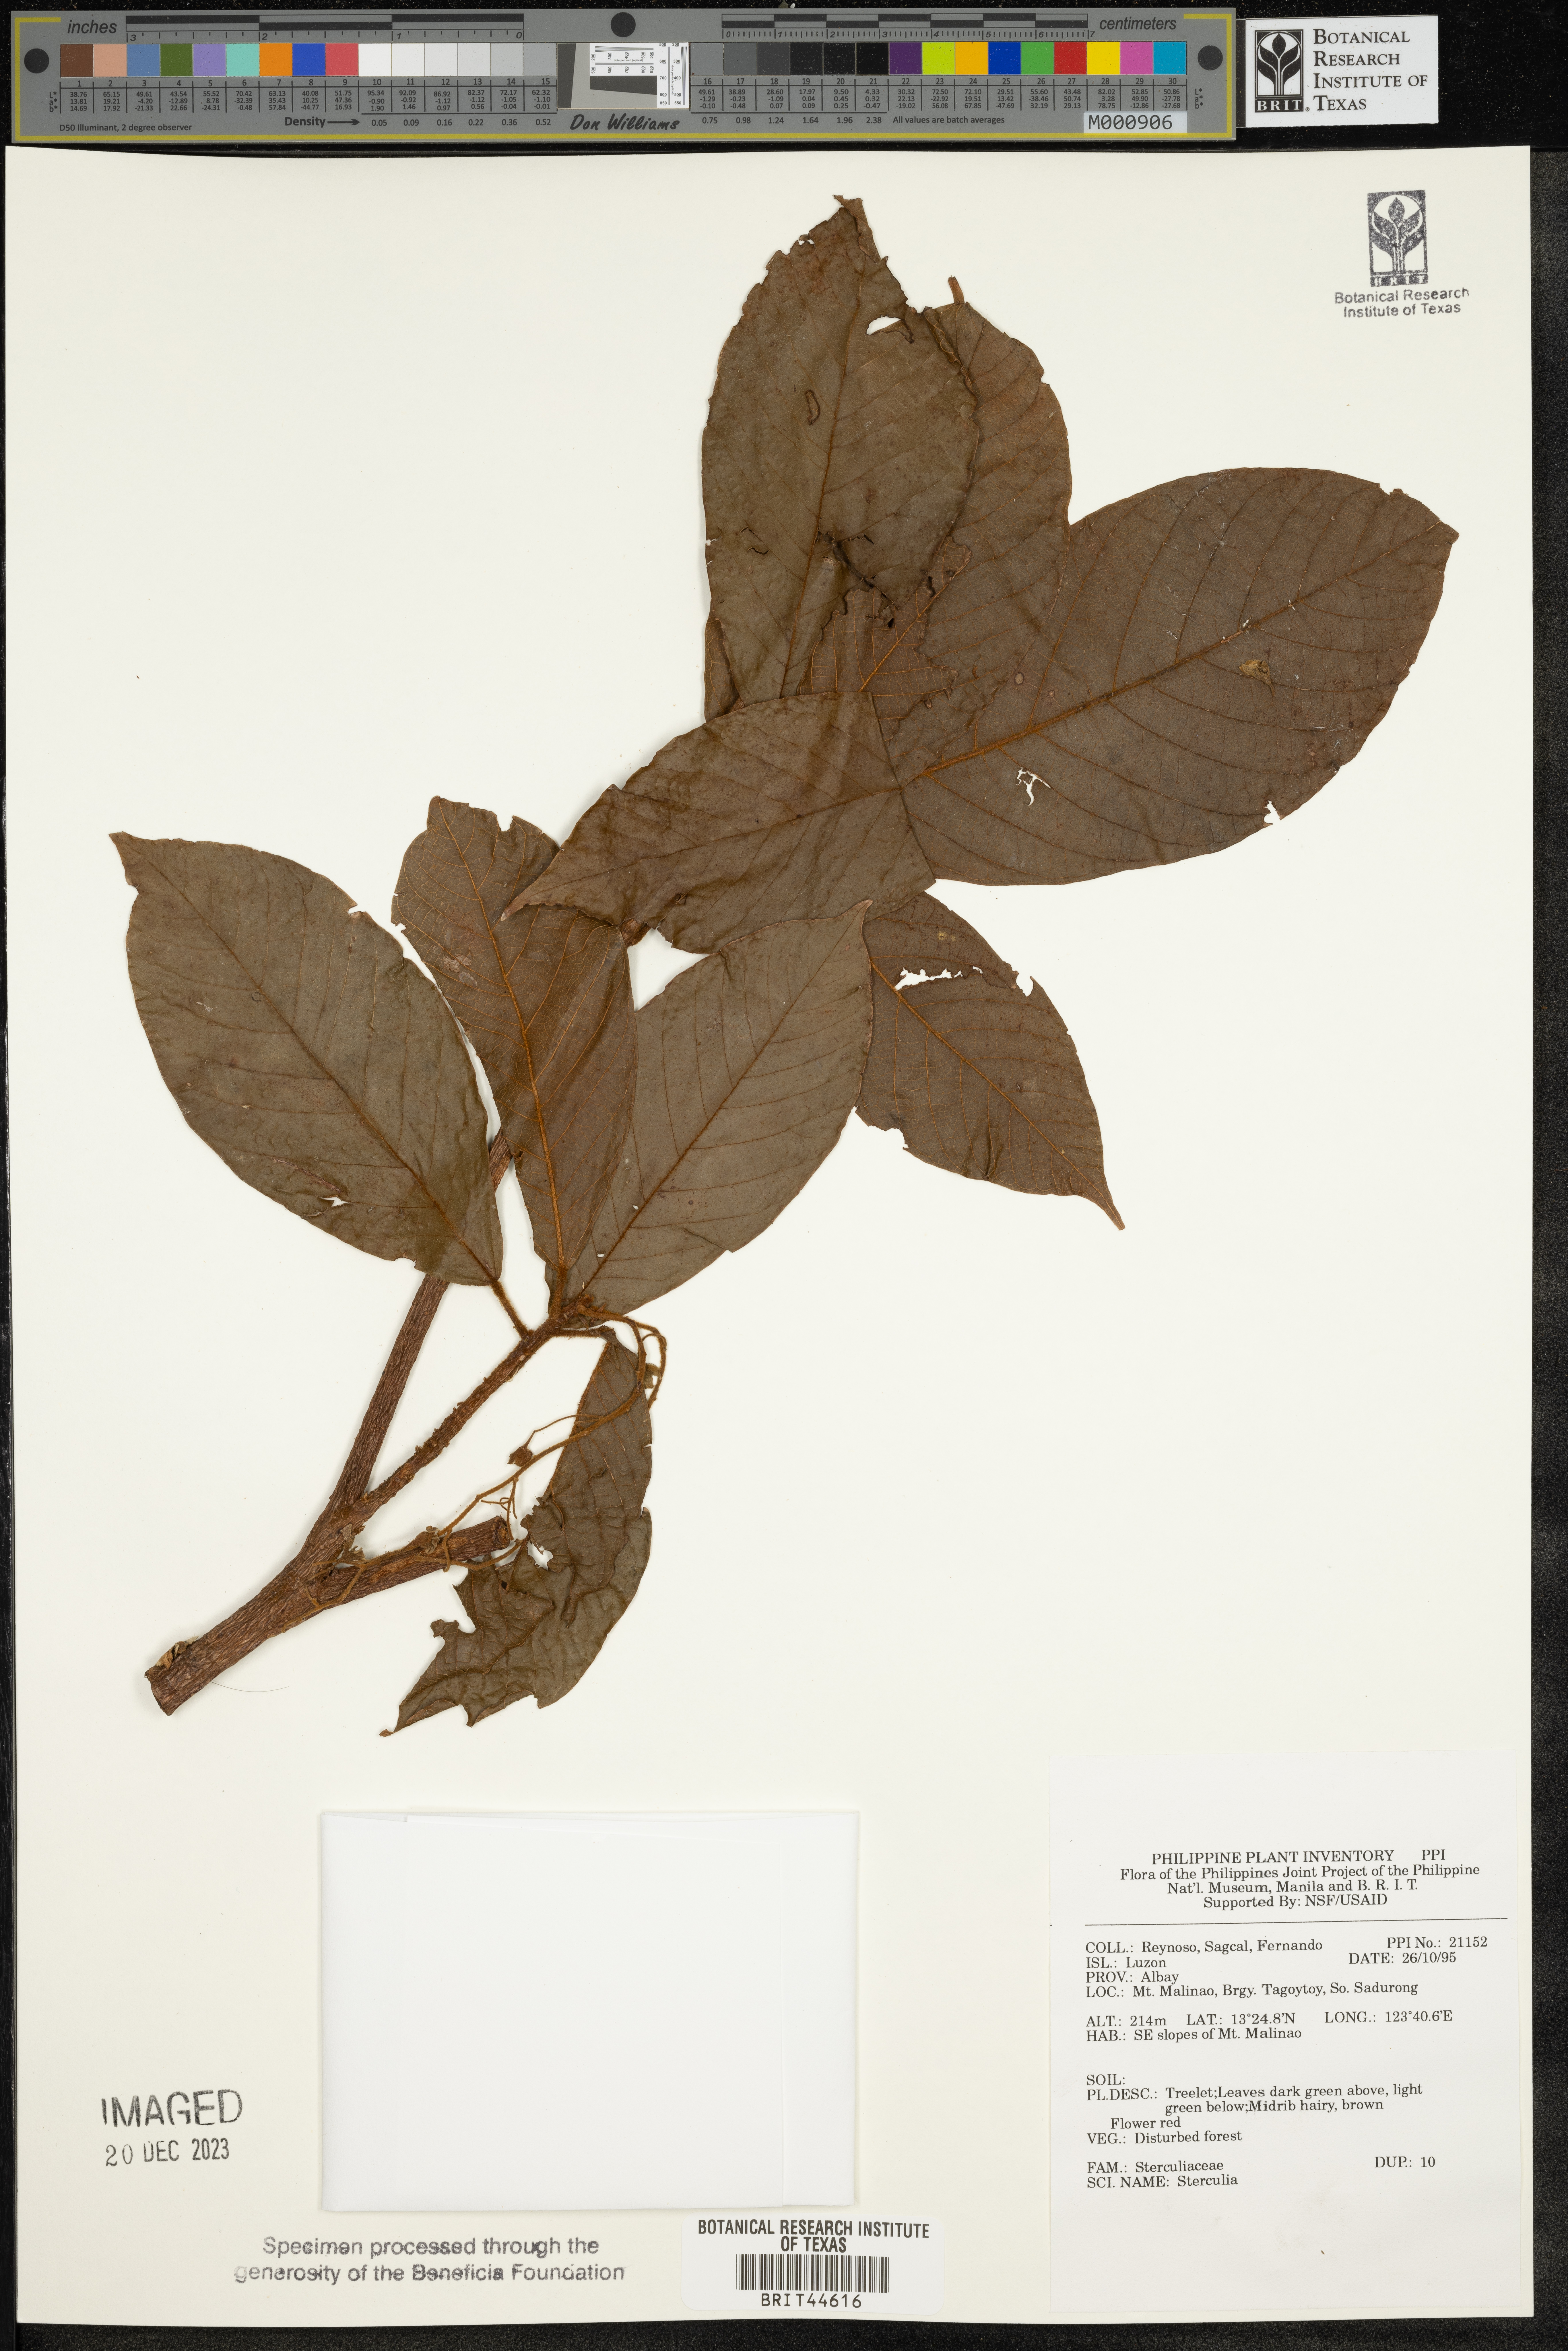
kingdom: Plantae
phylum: Tracheophyta
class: Magnoliopsida
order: Malvales
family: Malvaceae
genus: Sterculia
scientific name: Sterculia
